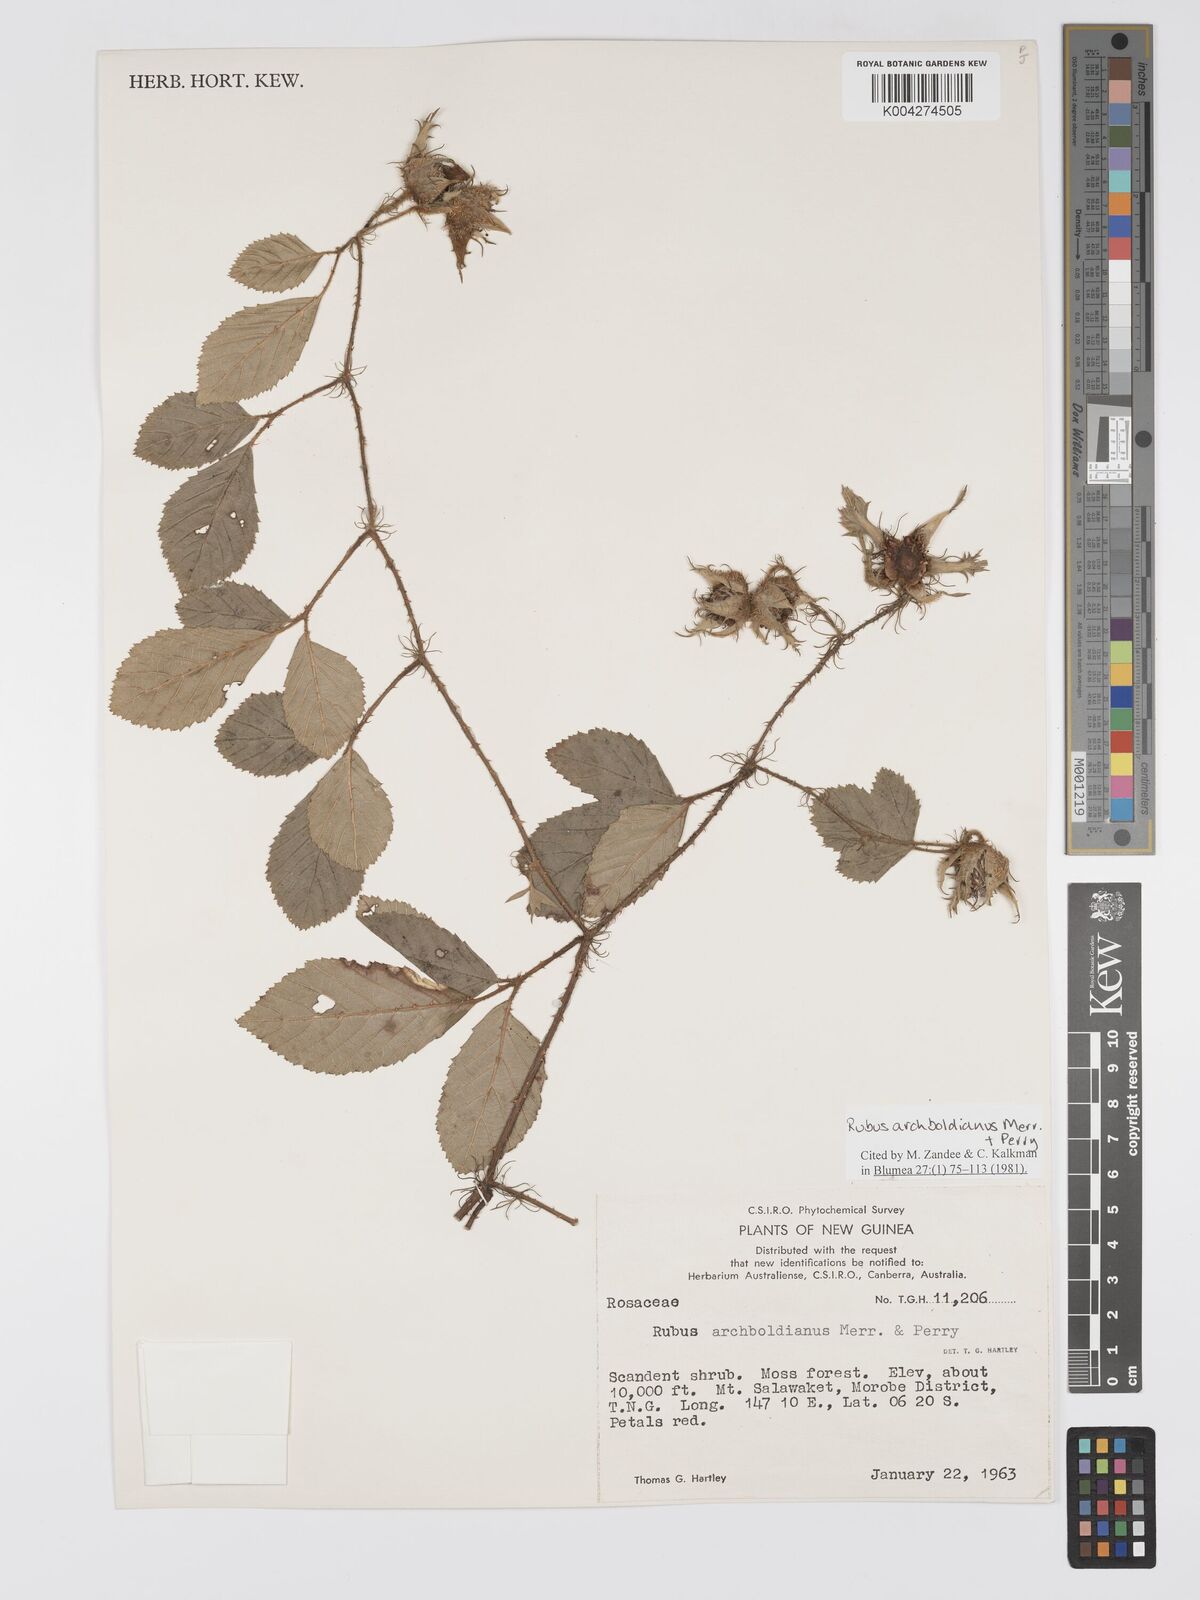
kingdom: Plantae
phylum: Tracheophyta
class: Magnoliopsida
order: Rosales
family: Rosaceae
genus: Rubus
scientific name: Rubus archboldianus
